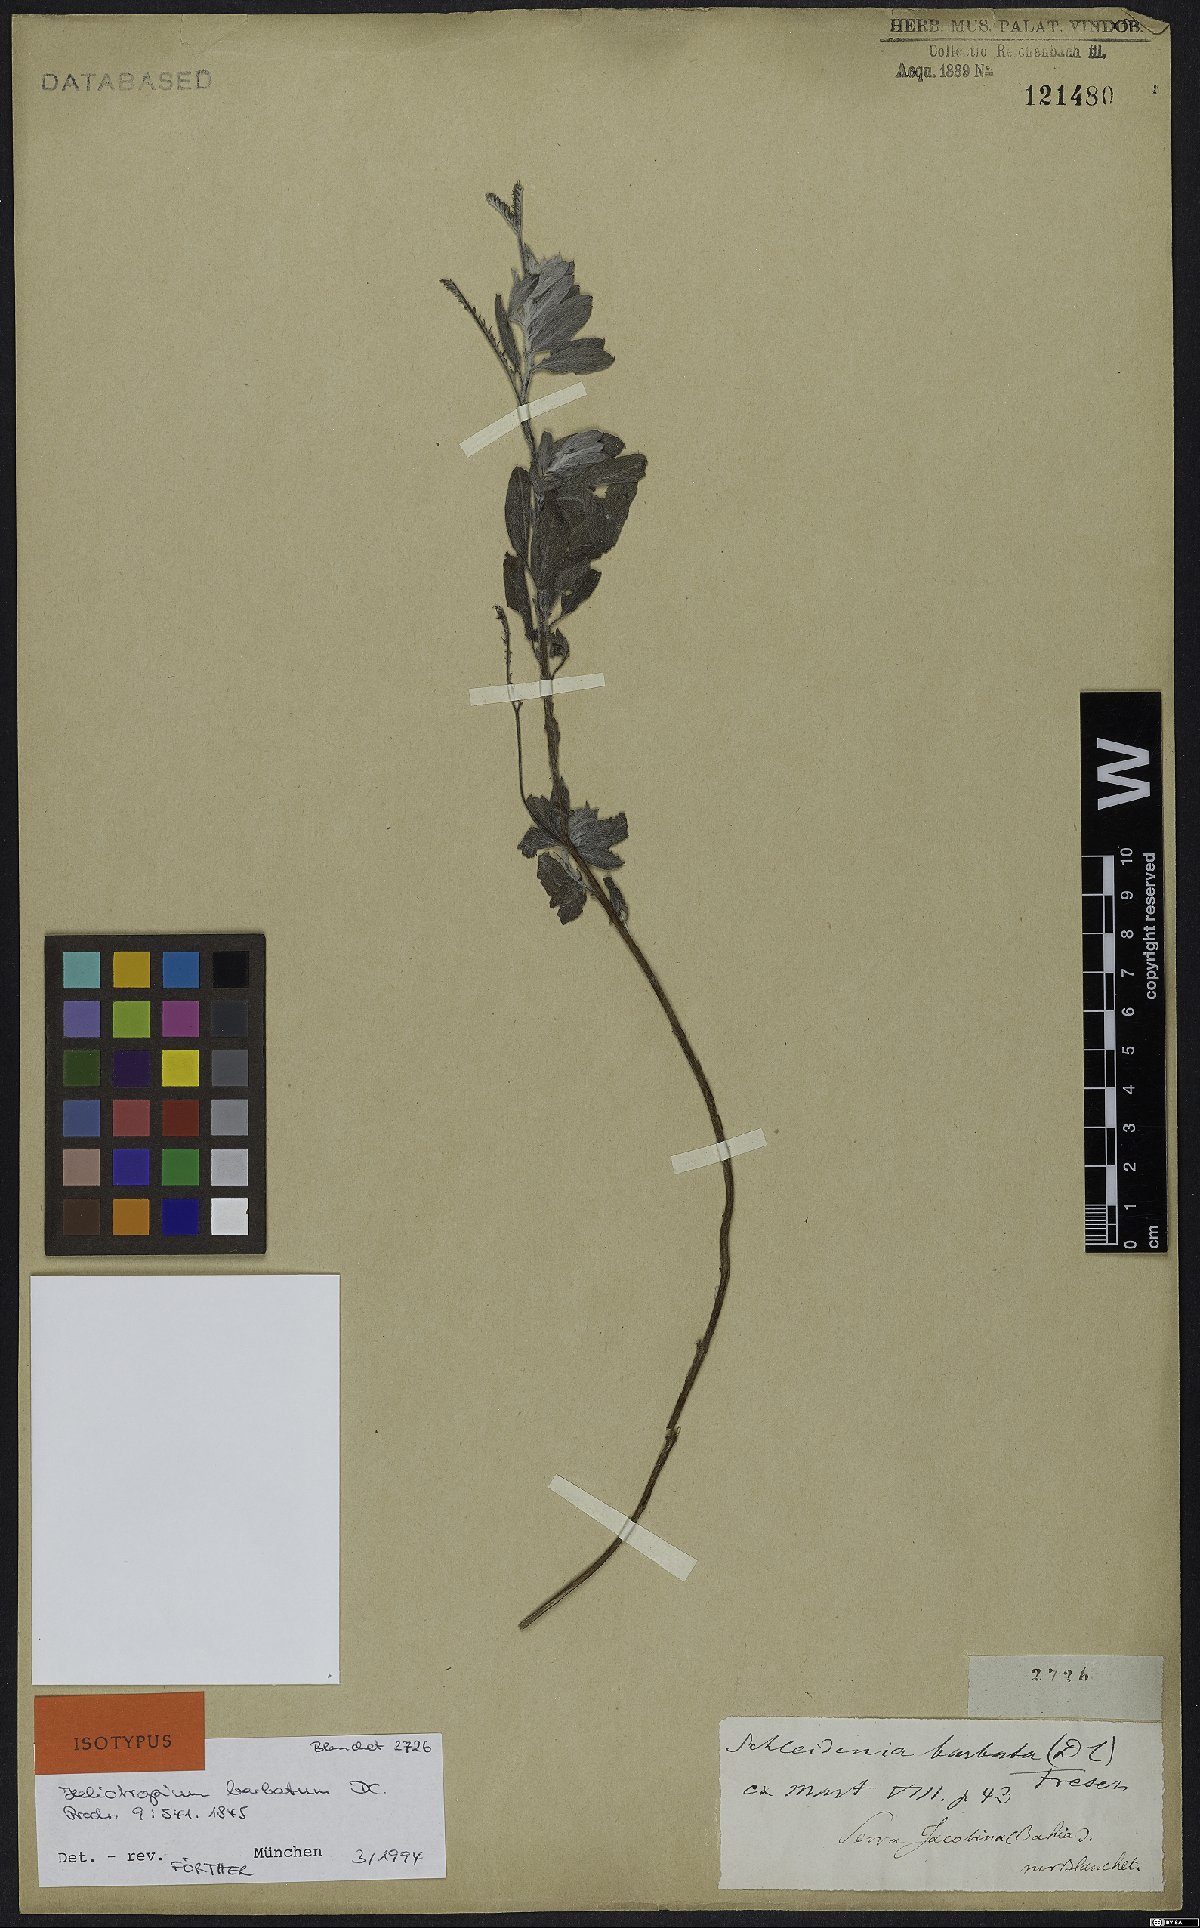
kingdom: Plantae
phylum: Tracheophyta
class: Magnoliopsida
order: Boraginales
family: Heliotropiaceae
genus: Euploca
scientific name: Euploca barbata
